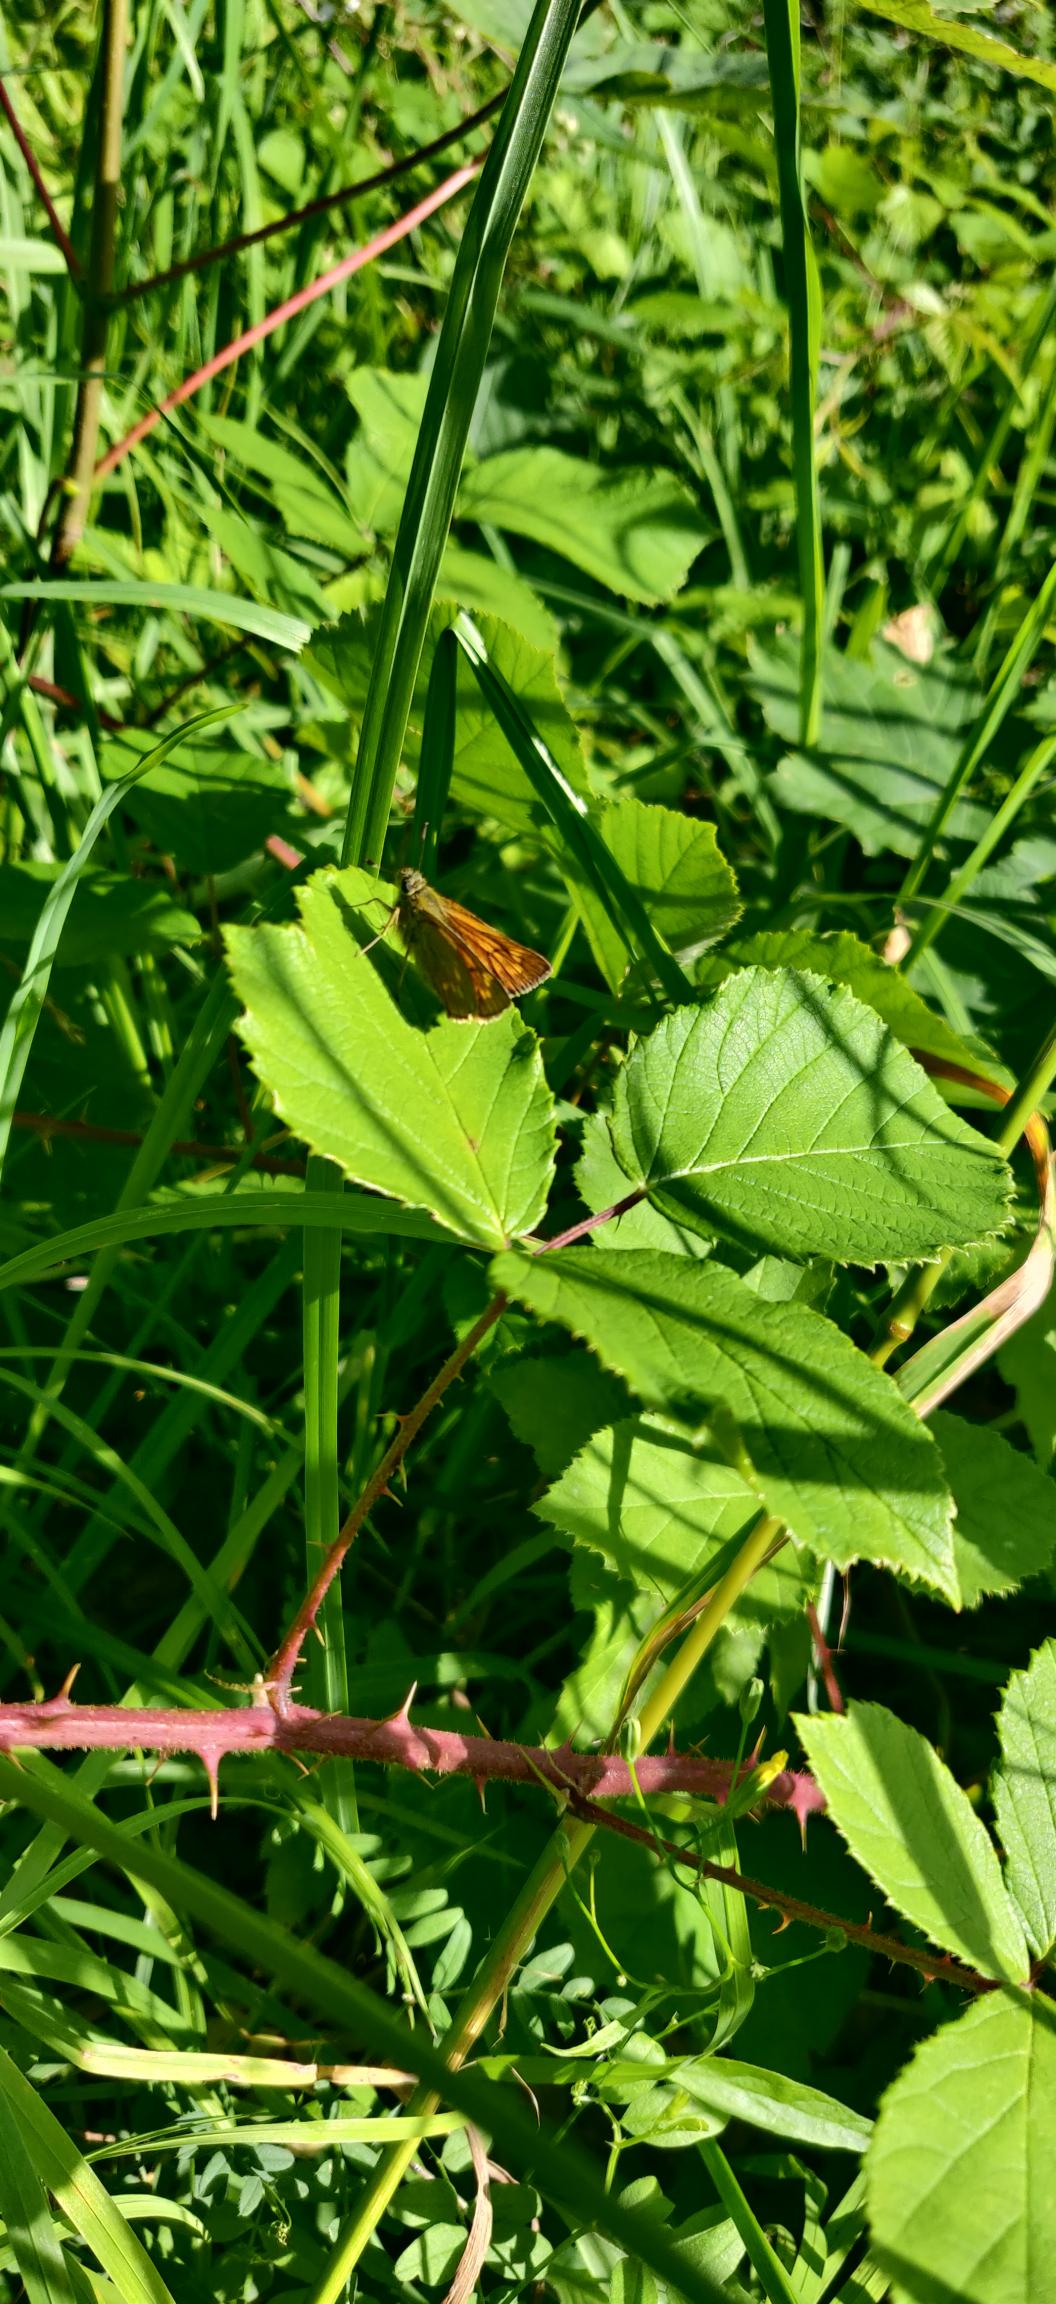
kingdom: Animalia
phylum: Arthropoda
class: Insecta
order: Lepidoptera
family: Hesperiidae
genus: Ochlodes
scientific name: Ochlodes venata
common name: Stor bredpande
